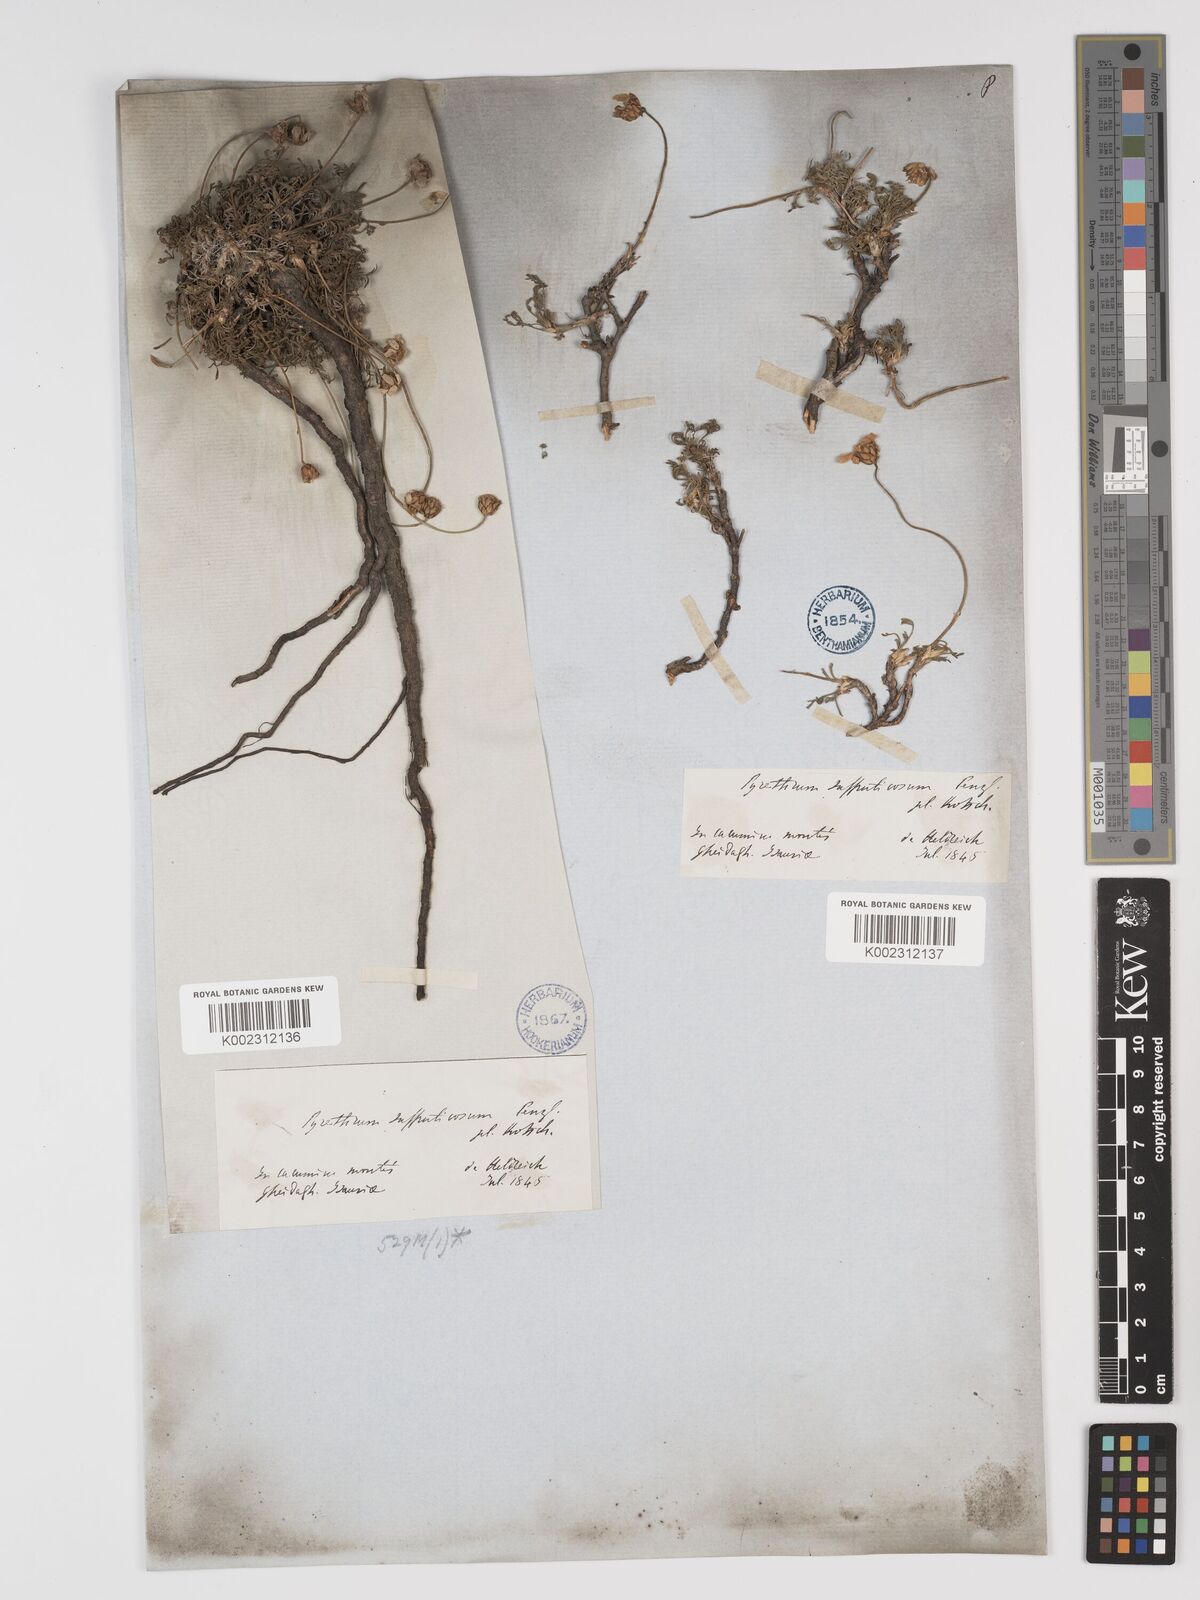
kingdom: Plantae
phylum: Tracheophyta
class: Magnoliopsida
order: Asterales
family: Asteraceae
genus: Ajania
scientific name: Ajania fruticulosa
